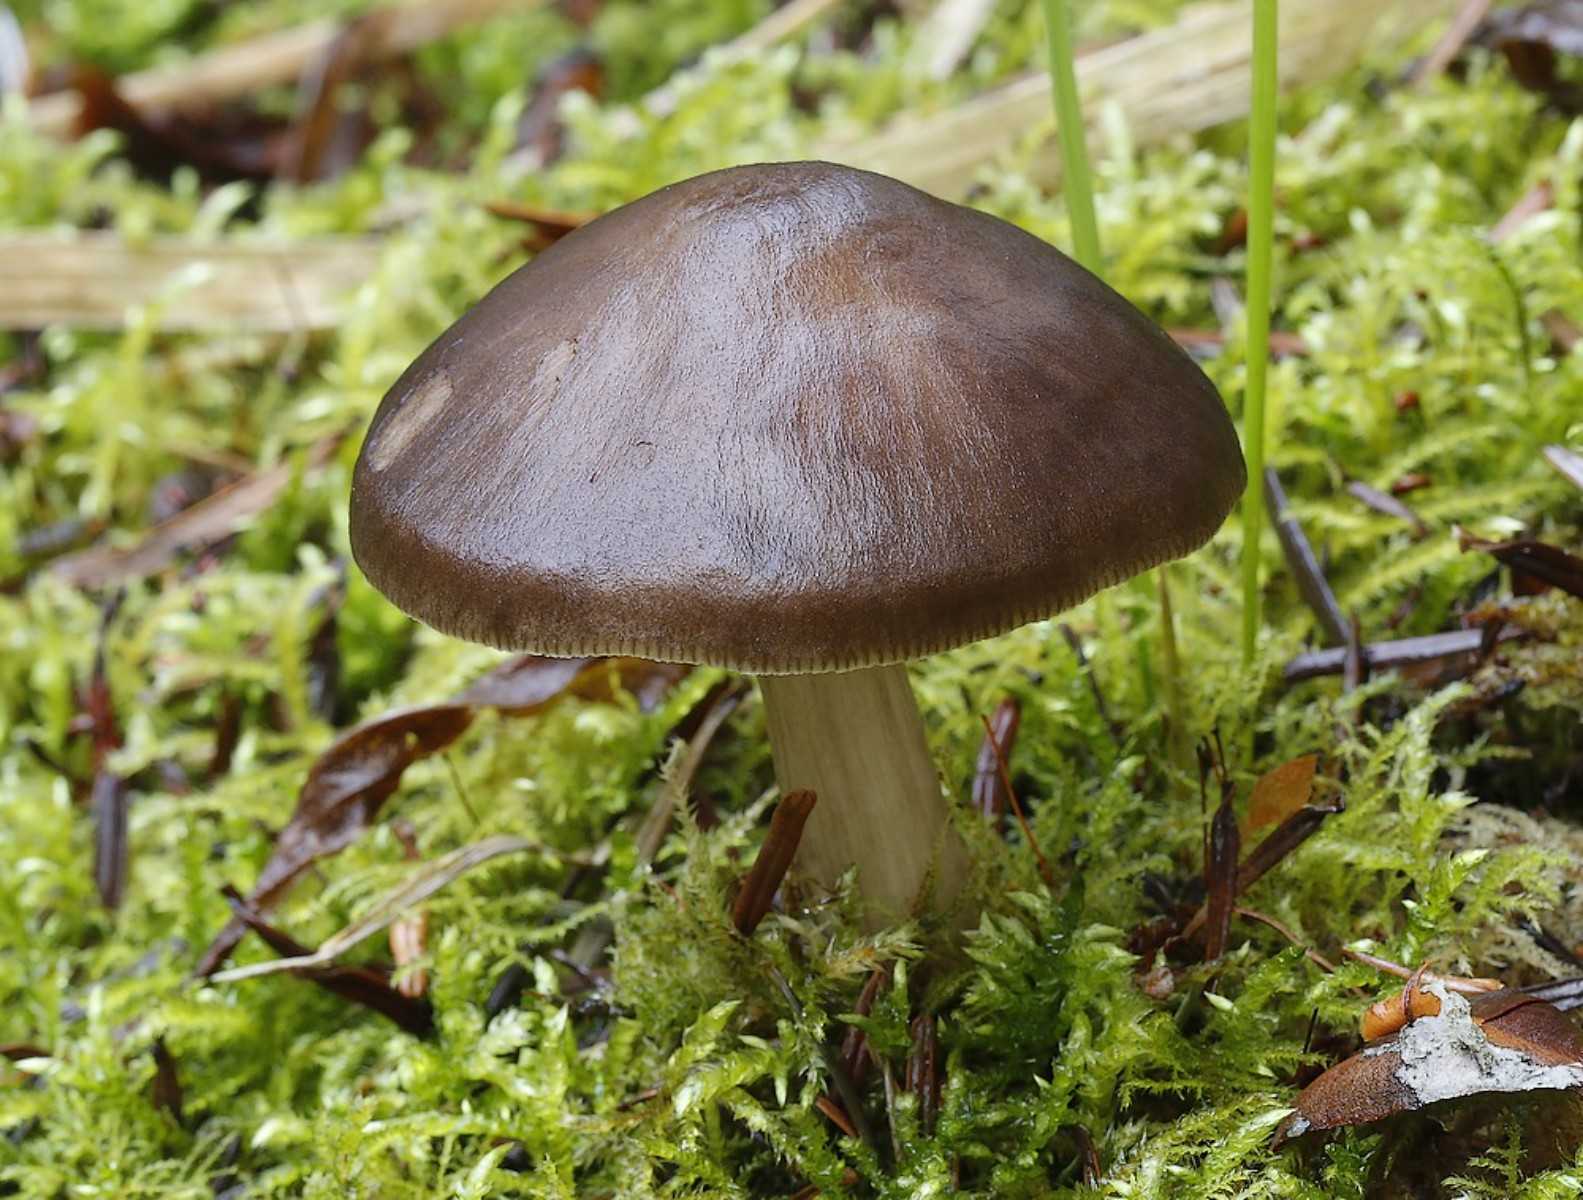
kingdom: Fungi
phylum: Basidiomycota
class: Agaricomycetes
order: Agaricales
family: Pluteaceae
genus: Pluteus
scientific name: Pluteus
